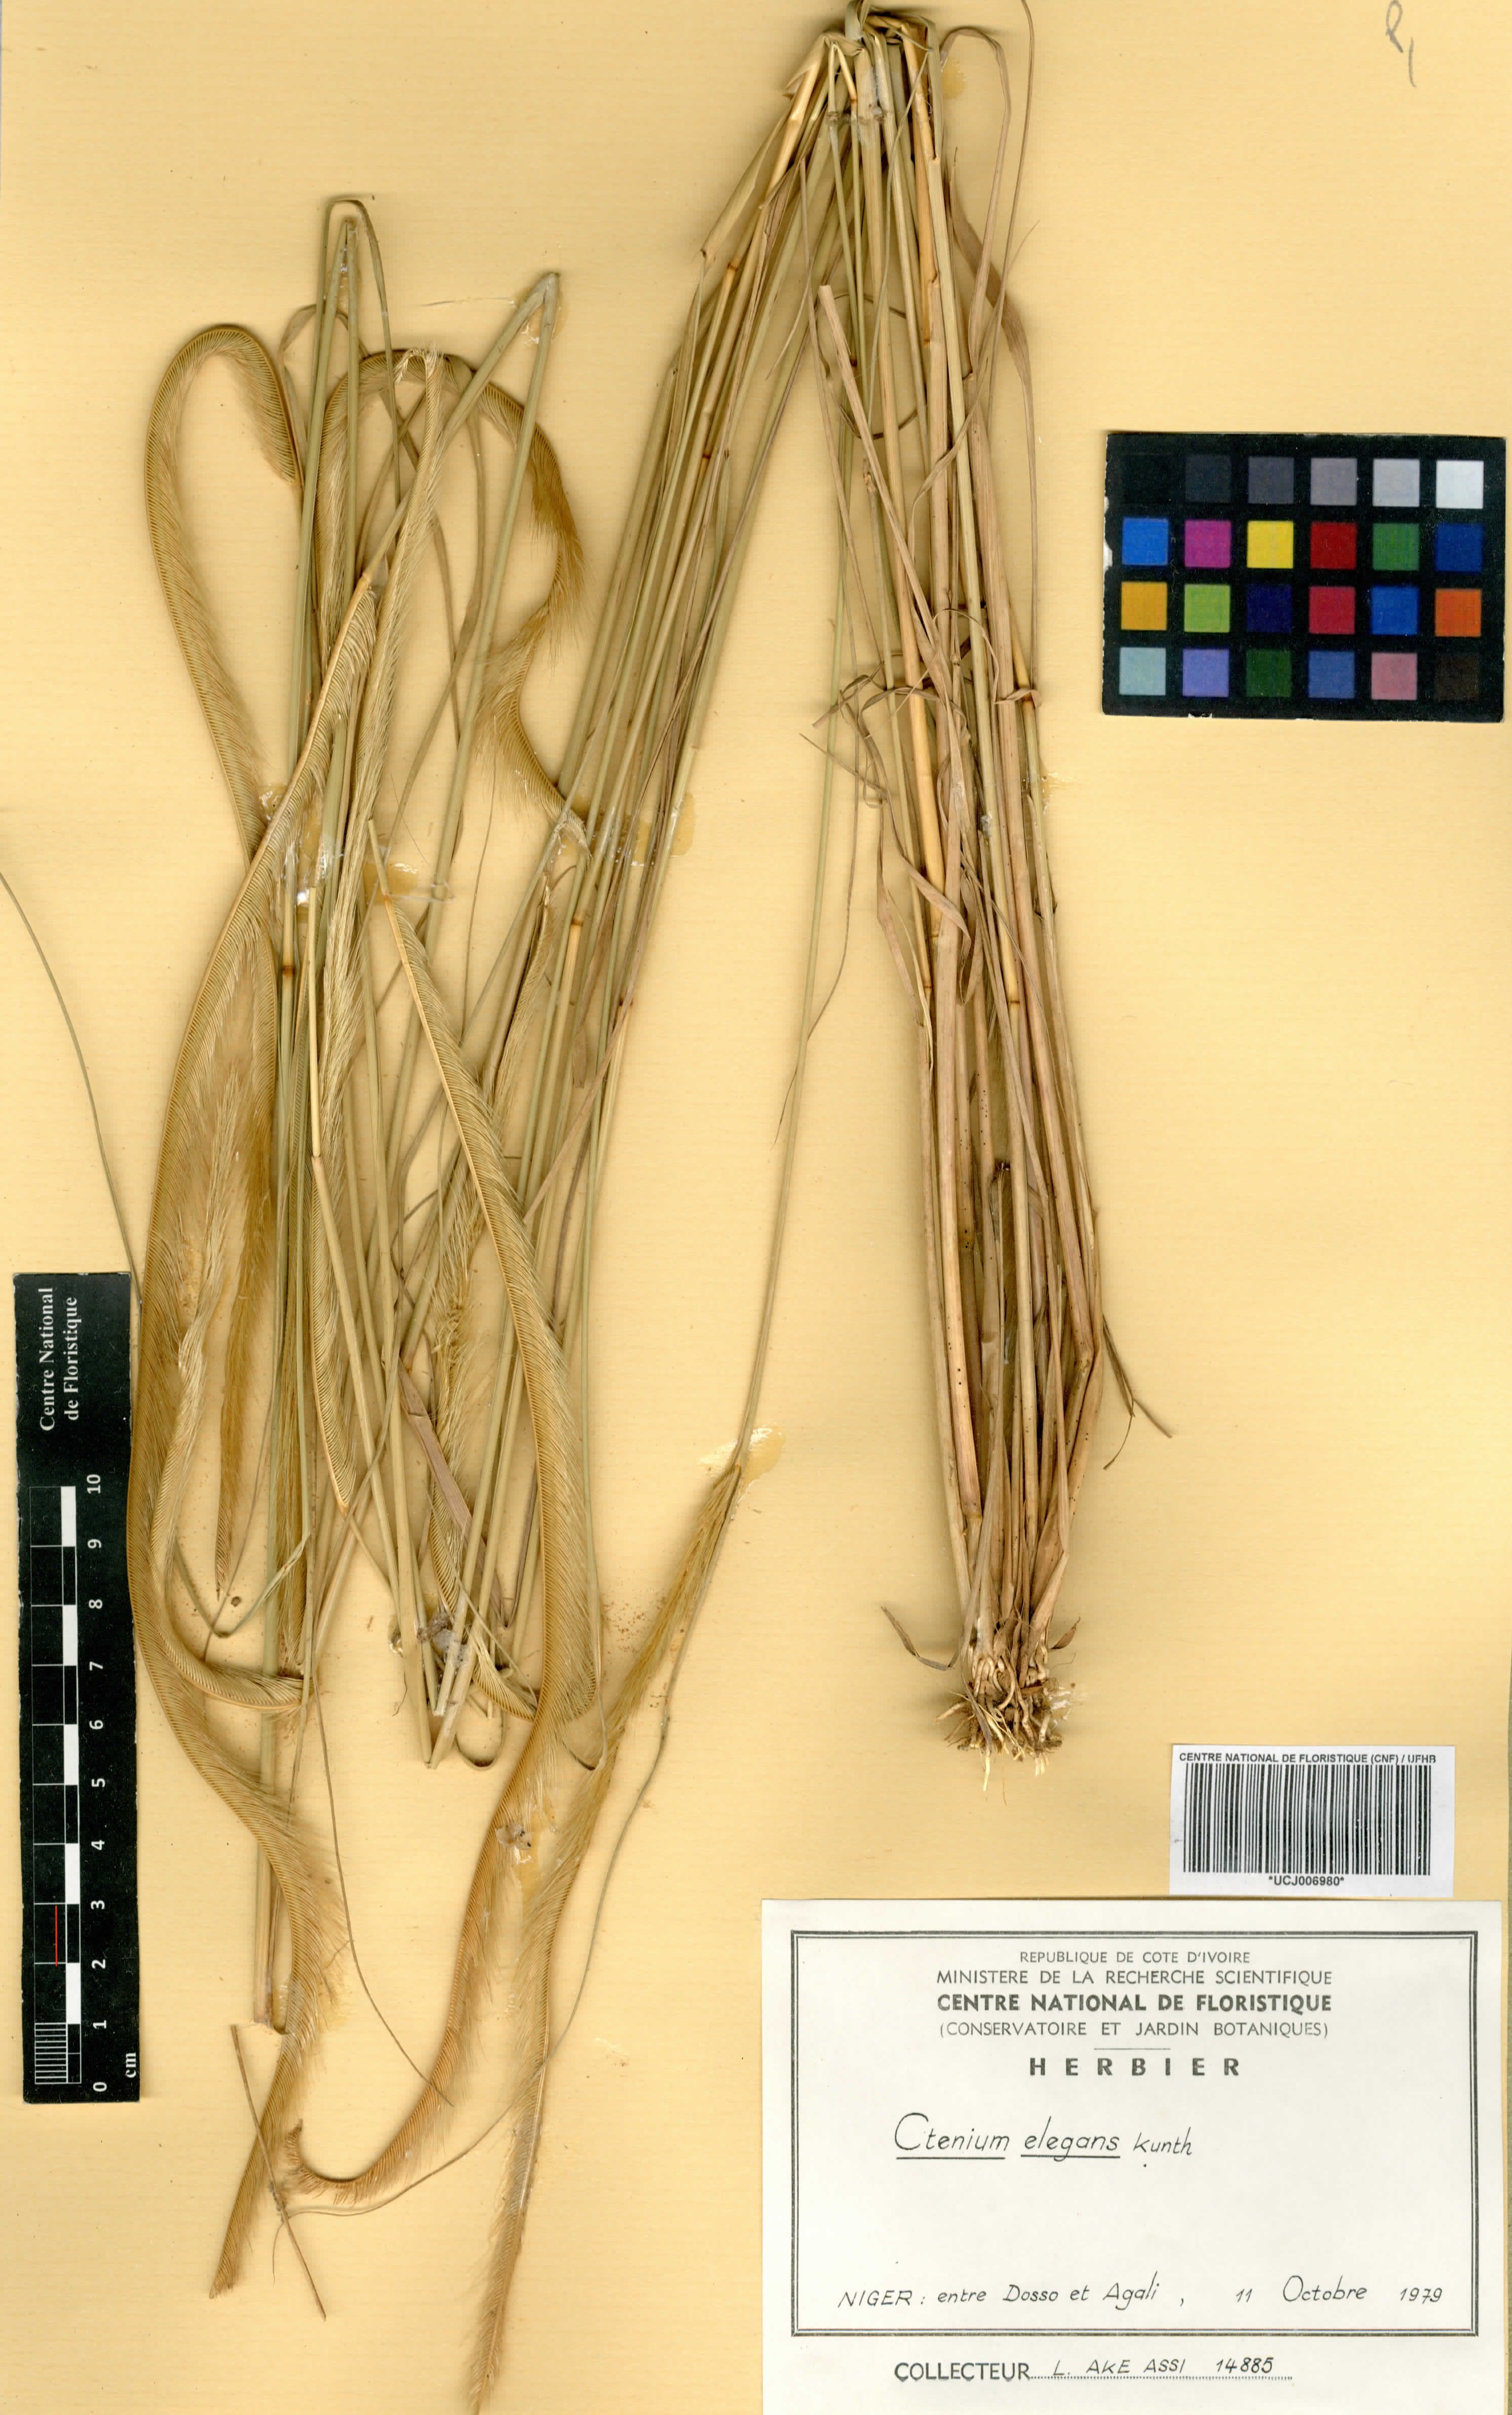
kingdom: Plantae
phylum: Tracheophyta
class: Liliopsida
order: Poales
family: Poaceae
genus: Ctenium
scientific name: Ctenium elegans
